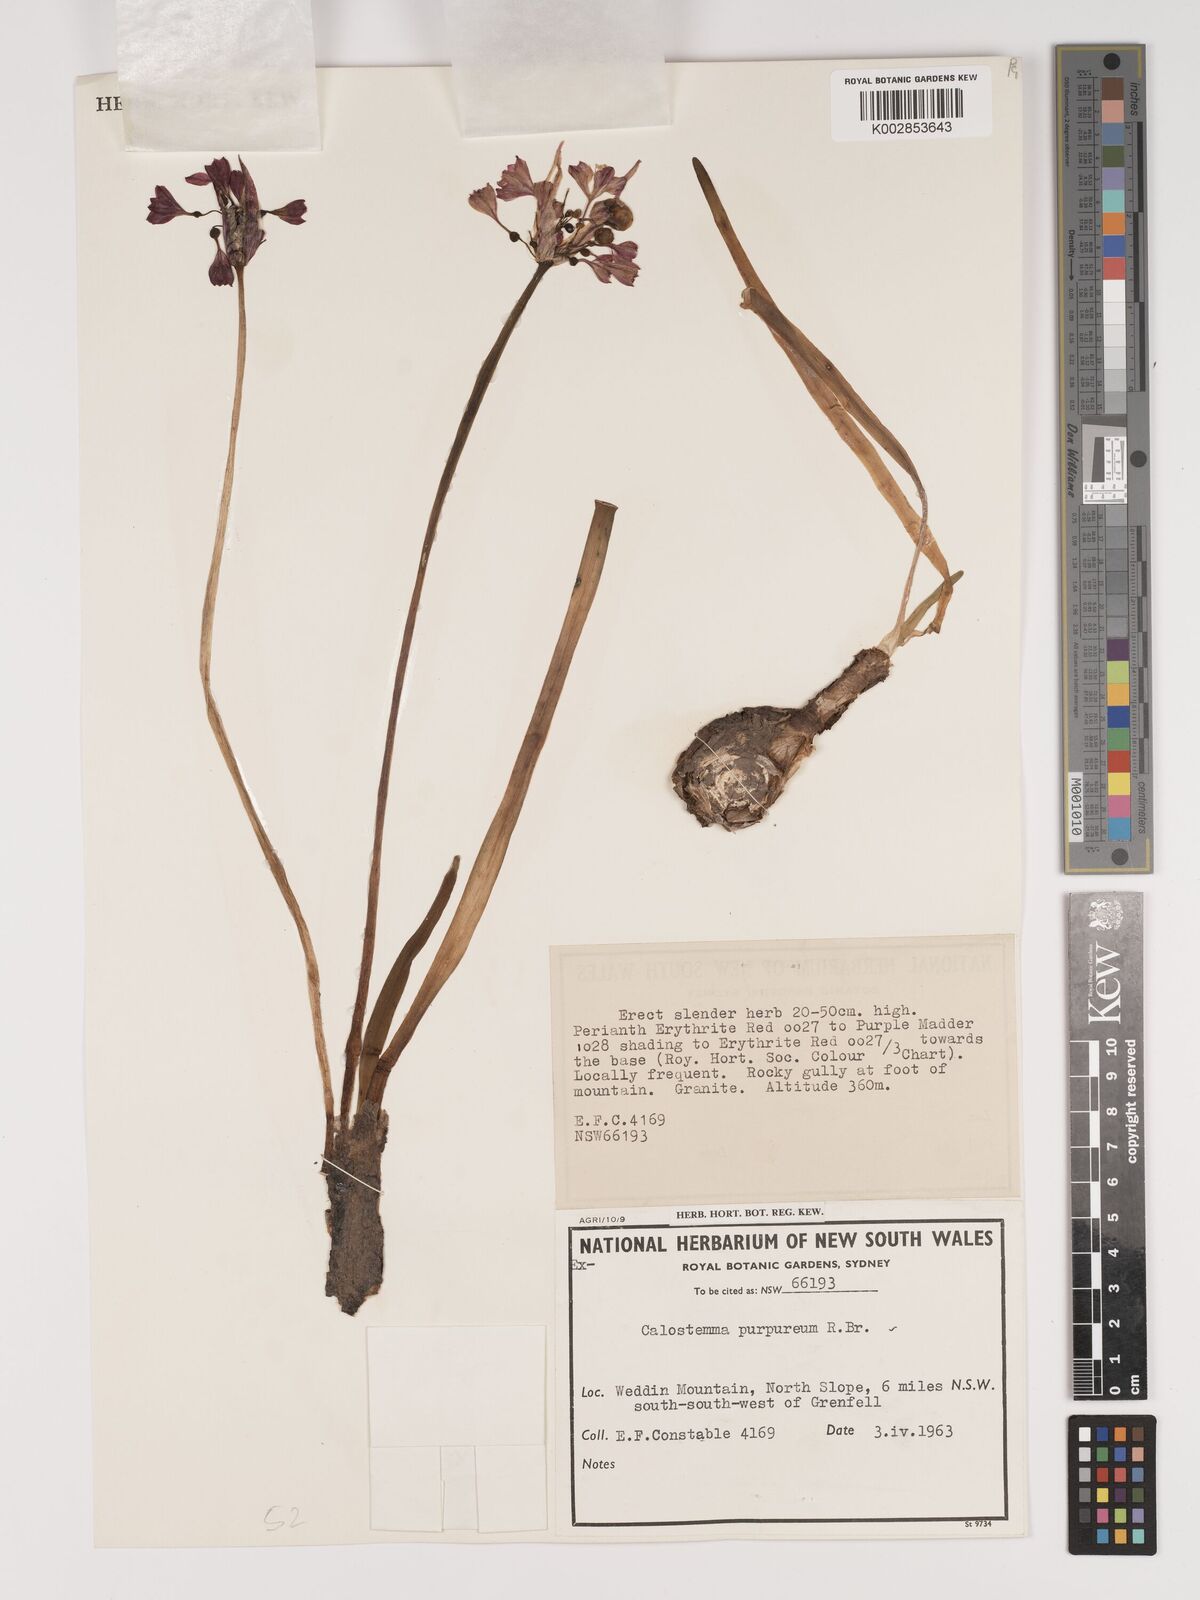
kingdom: Plantae
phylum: Tracheophyta
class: Liliopsida
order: Asparagales
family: Amaryllidaceae
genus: Calostemma
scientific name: Calostemma purpureum
